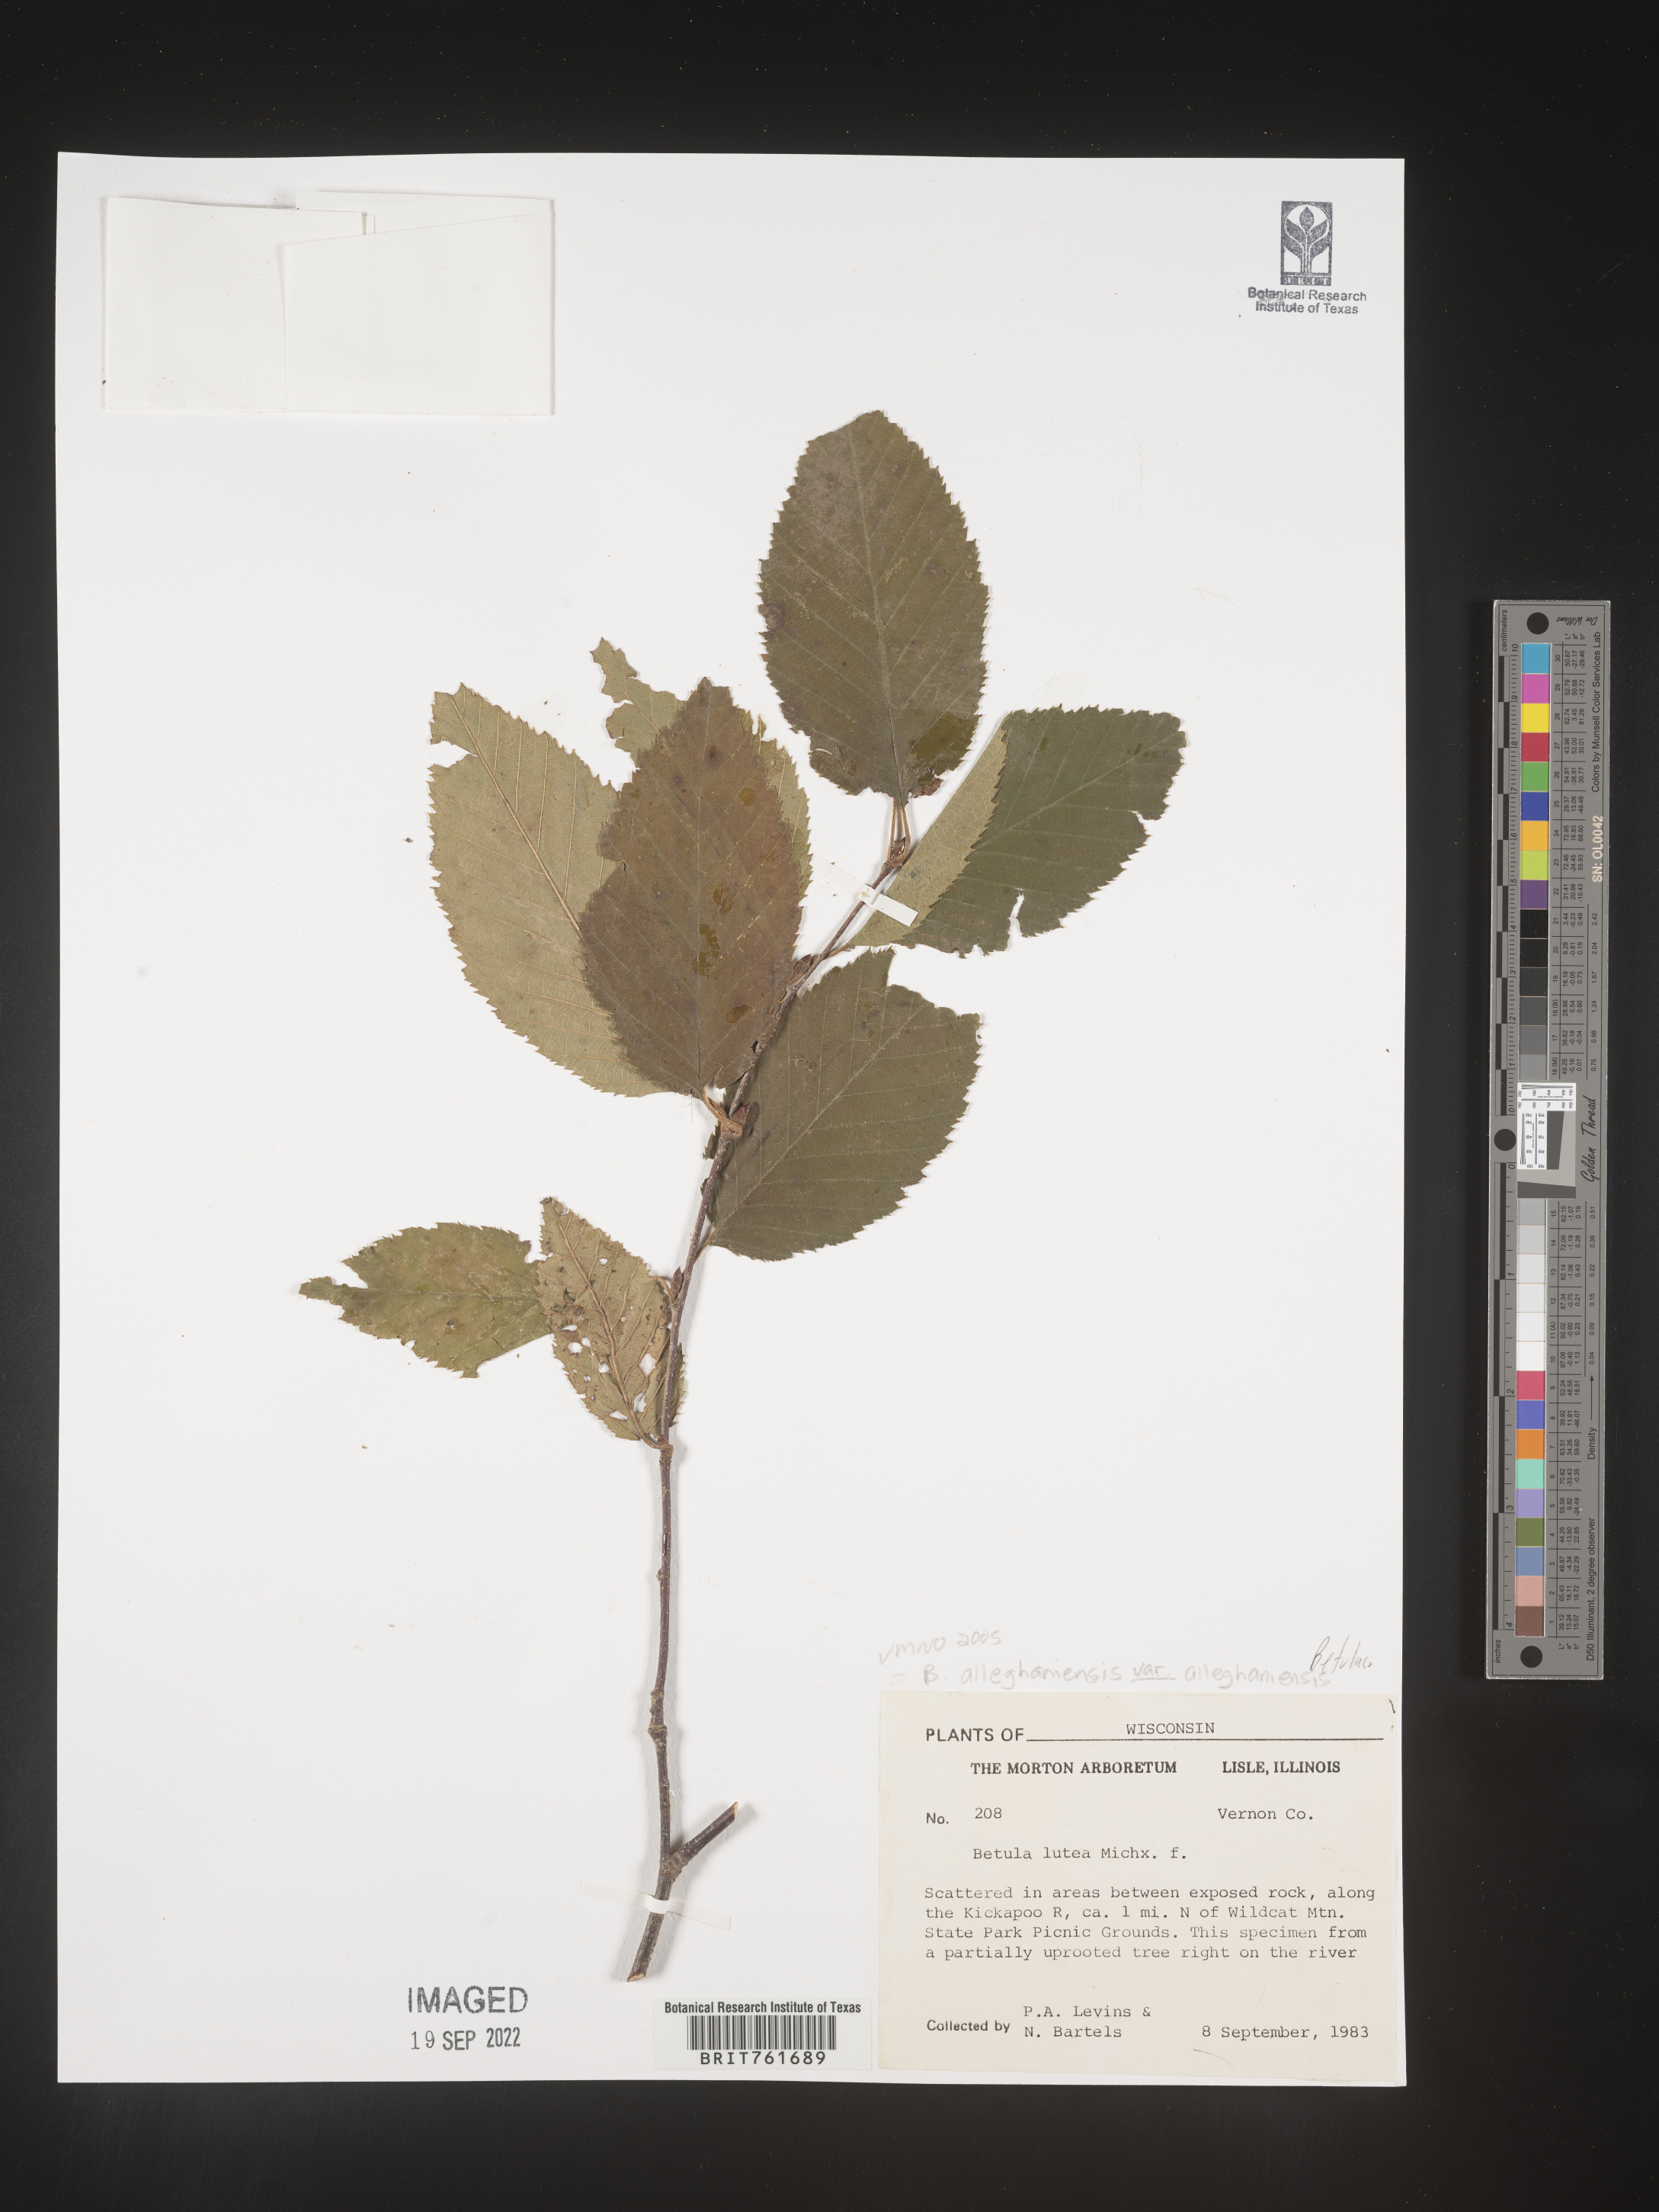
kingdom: Plantae
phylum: Tracheophyta
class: Magnoliopsida
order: Fagales
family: Betulaceae
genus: Betula
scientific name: Betula alleghaniensis
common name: Yellow birch
